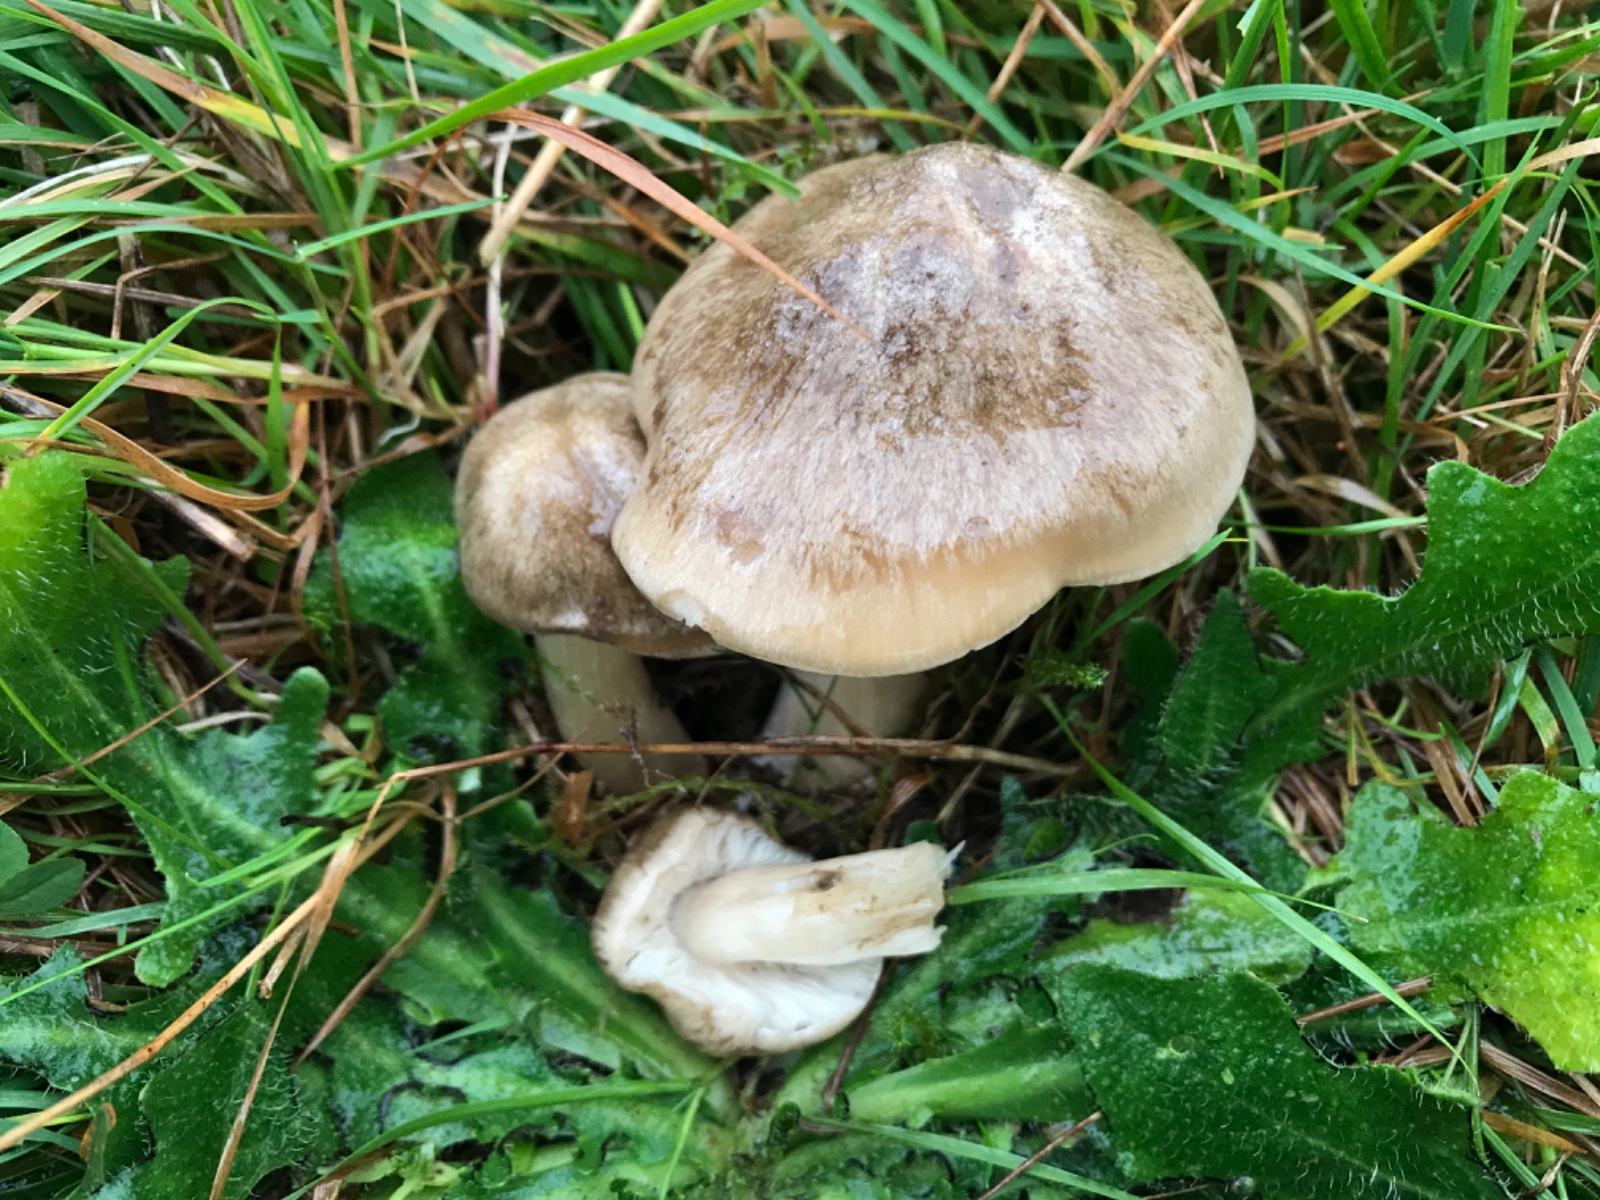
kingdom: Fungi
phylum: Basidiomycota
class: Agaricomycetes
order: Agaricales
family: Entolomataceae
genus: Entoloma
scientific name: Entoloma prunuloides
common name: mel-rødblad
